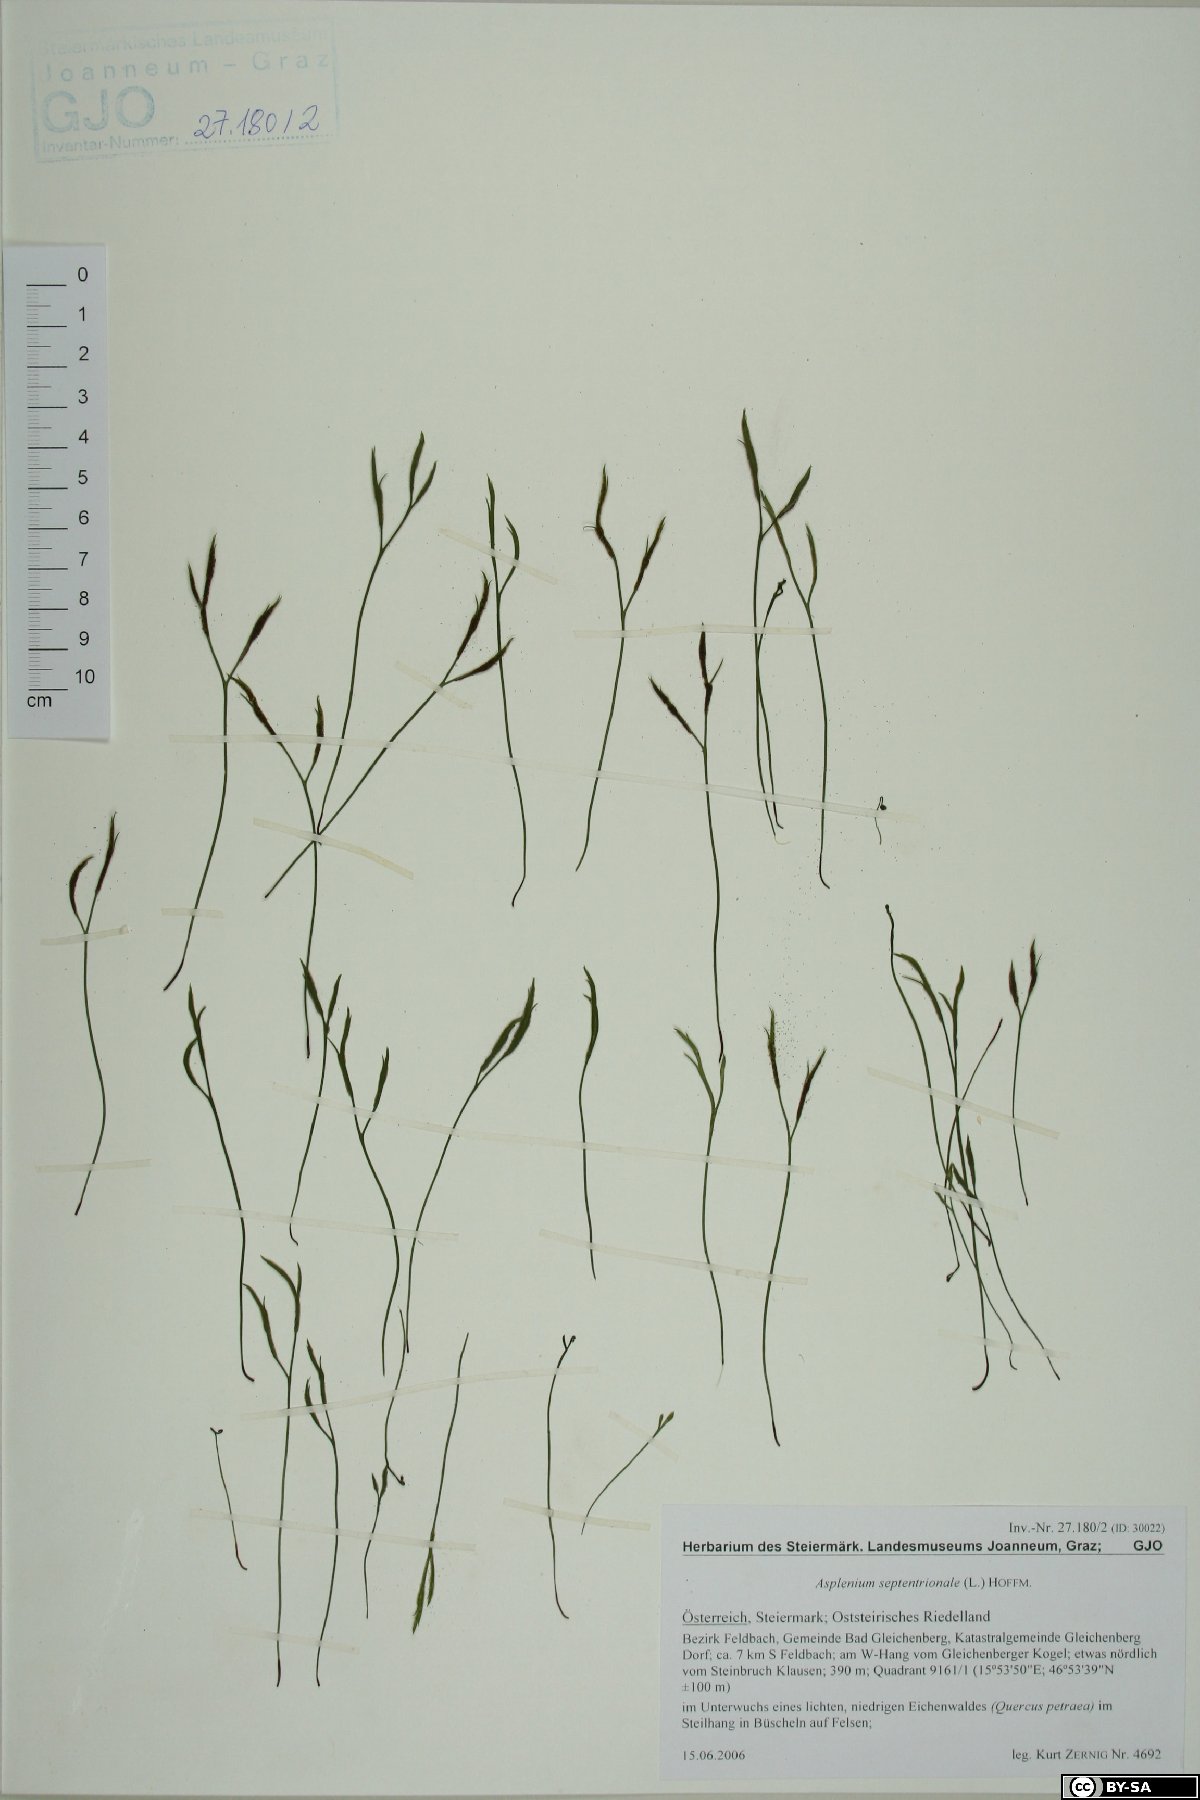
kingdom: Plantae
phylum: Tracheophyta
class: Polypodiopsida
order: Polypodiales
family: Aspleniaceae
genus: Asplenium
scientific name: Asplenium septentrionale
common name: Forked spleenwort
